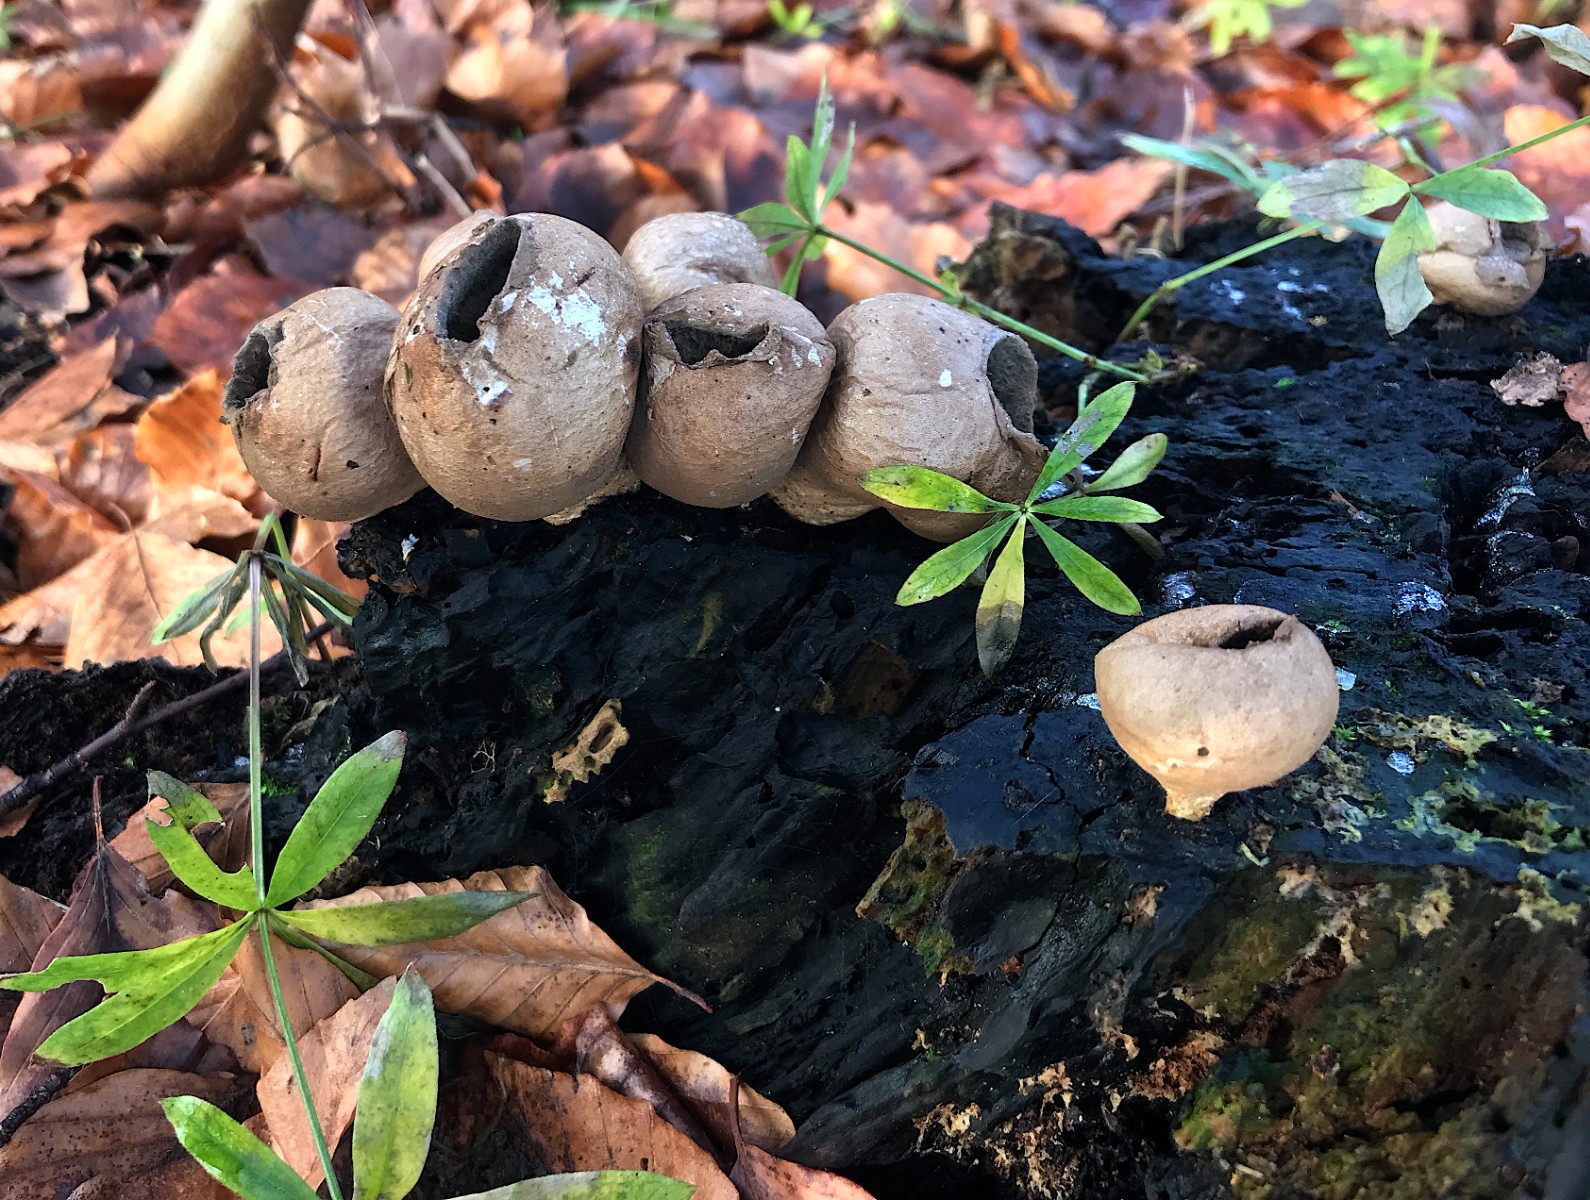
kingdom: Fungi
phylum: Basidiomycota
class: Agaricomycetes
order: Agaricales
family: Lycoperdaceae
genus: Apioperdon
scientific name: Apioperdon pyriforme
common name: pære-støvbold
